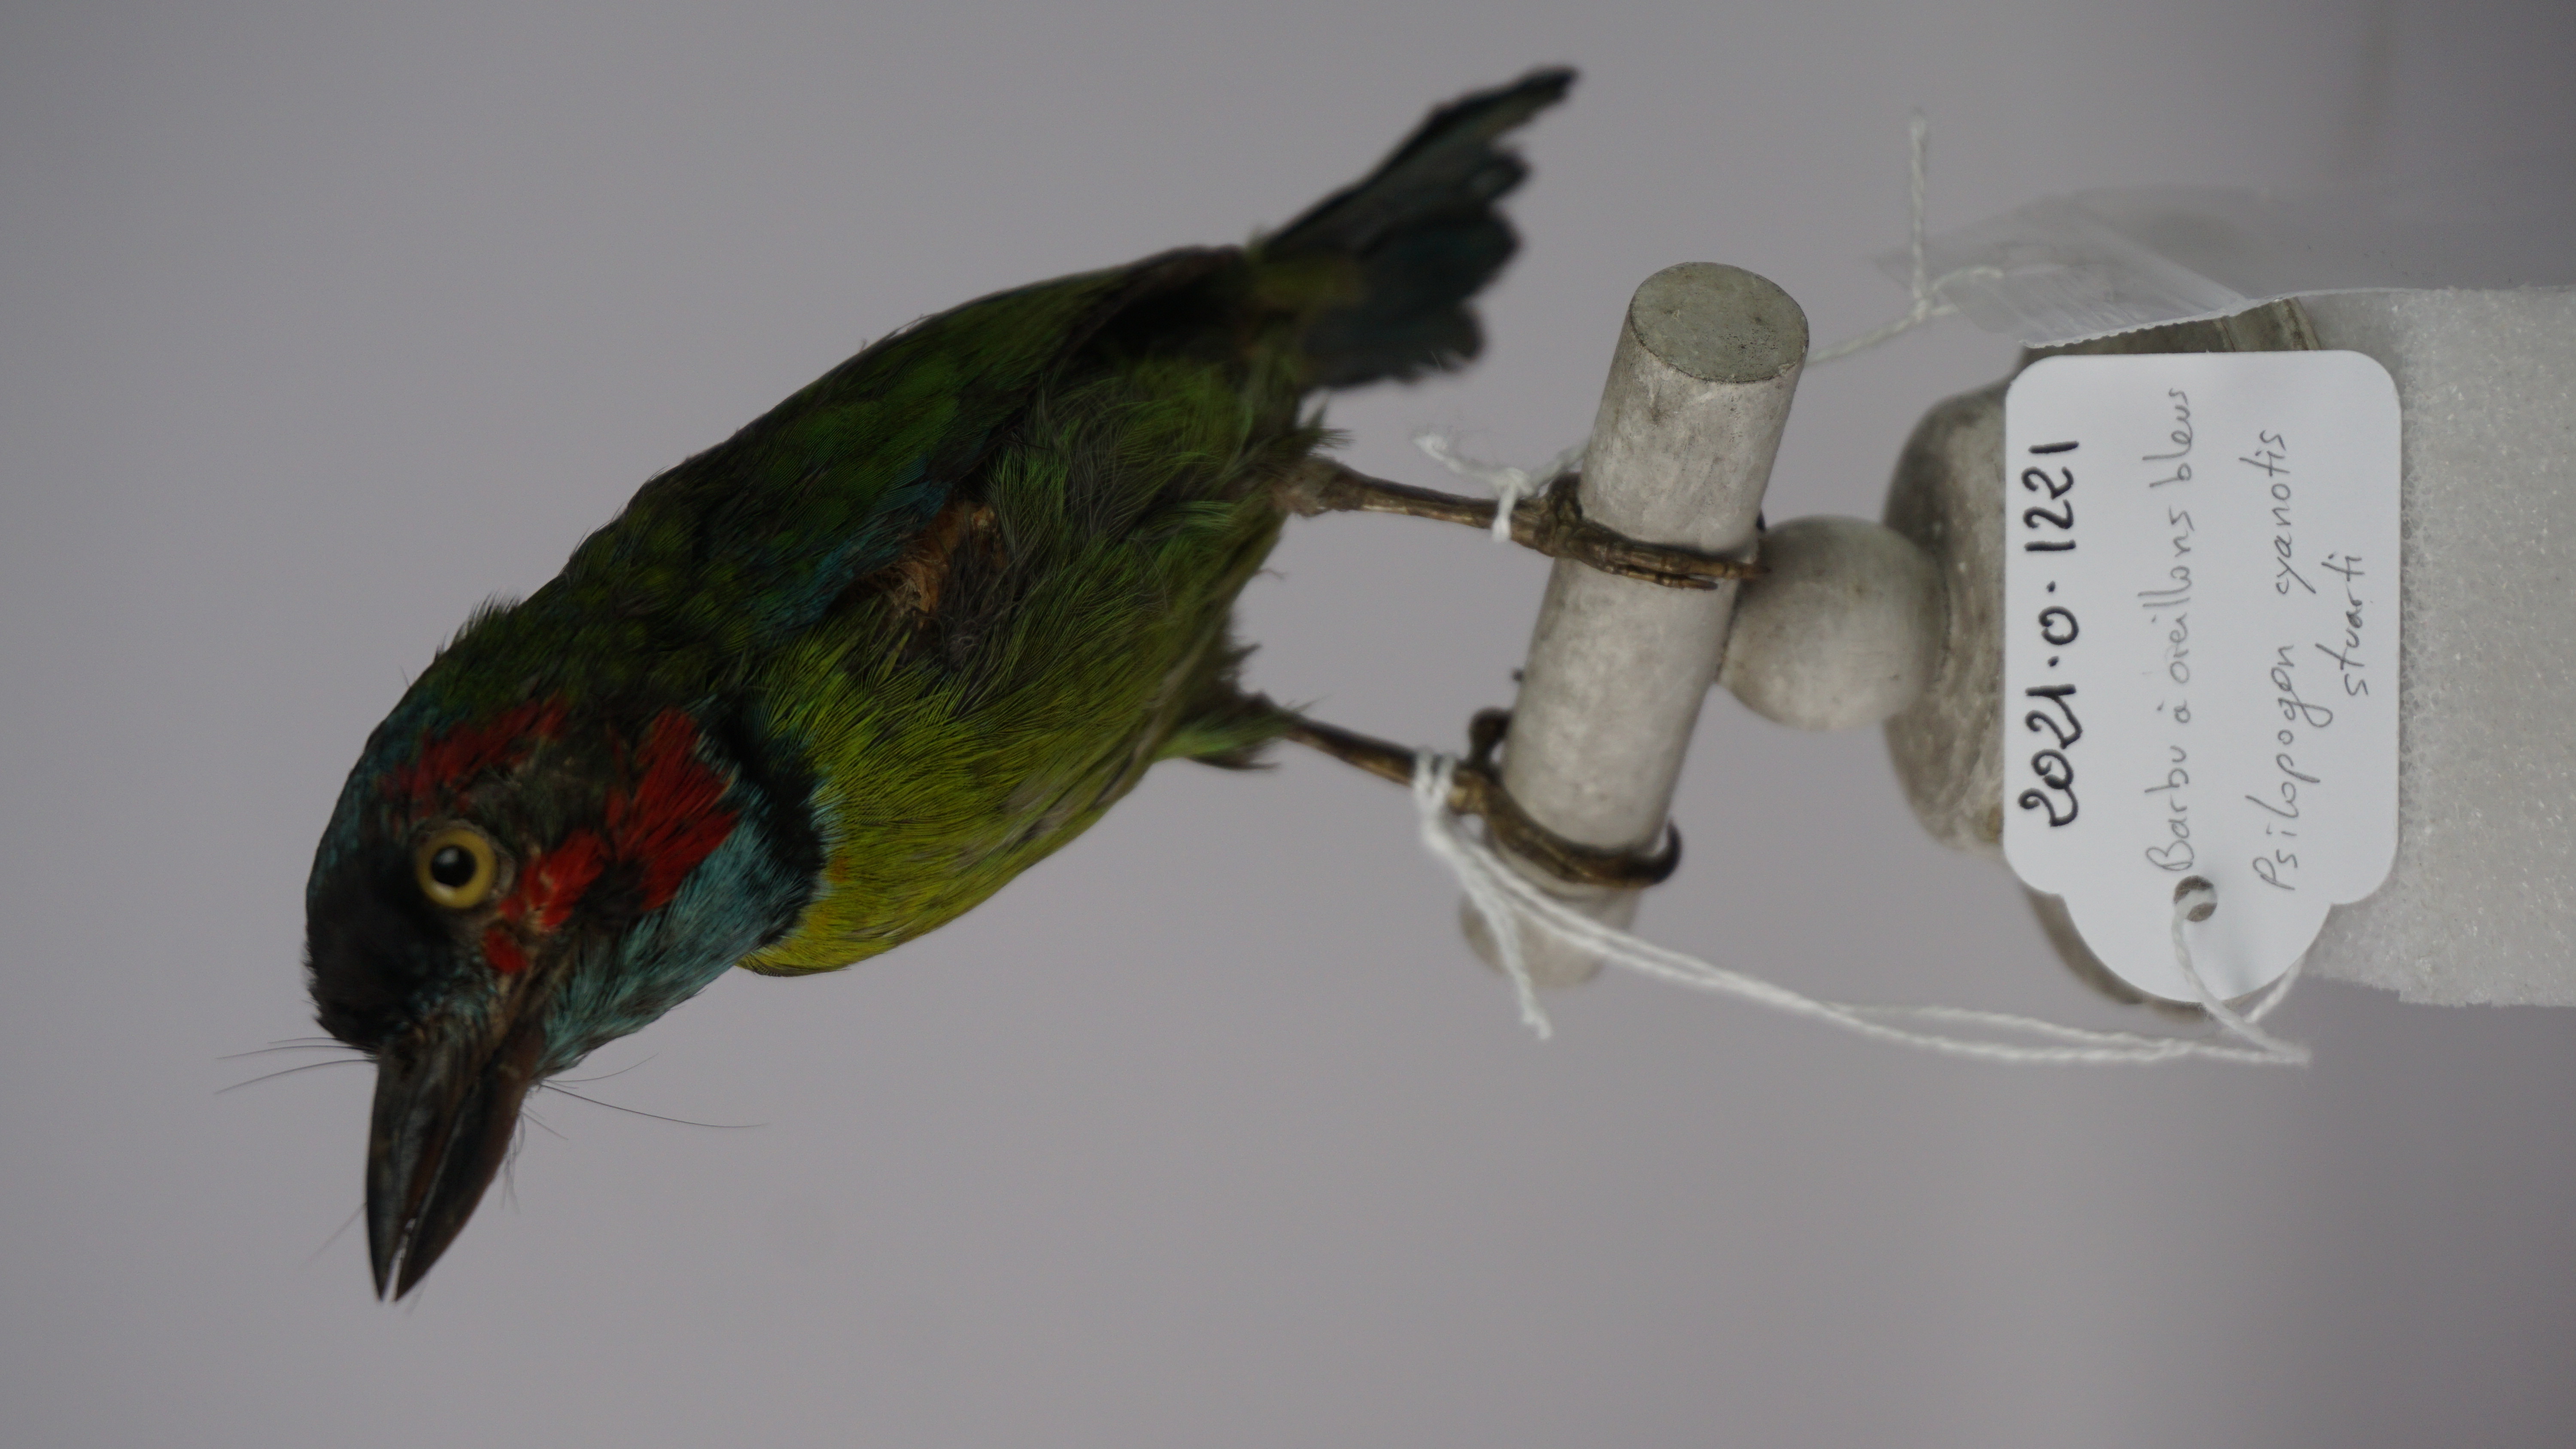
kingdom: Animalia
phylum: Chordata
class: Aves
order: Piciformes
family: Megalaimidae
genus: Psilopogon
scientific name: Psilopogon duvaucelii
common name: Blue-eared barbet
